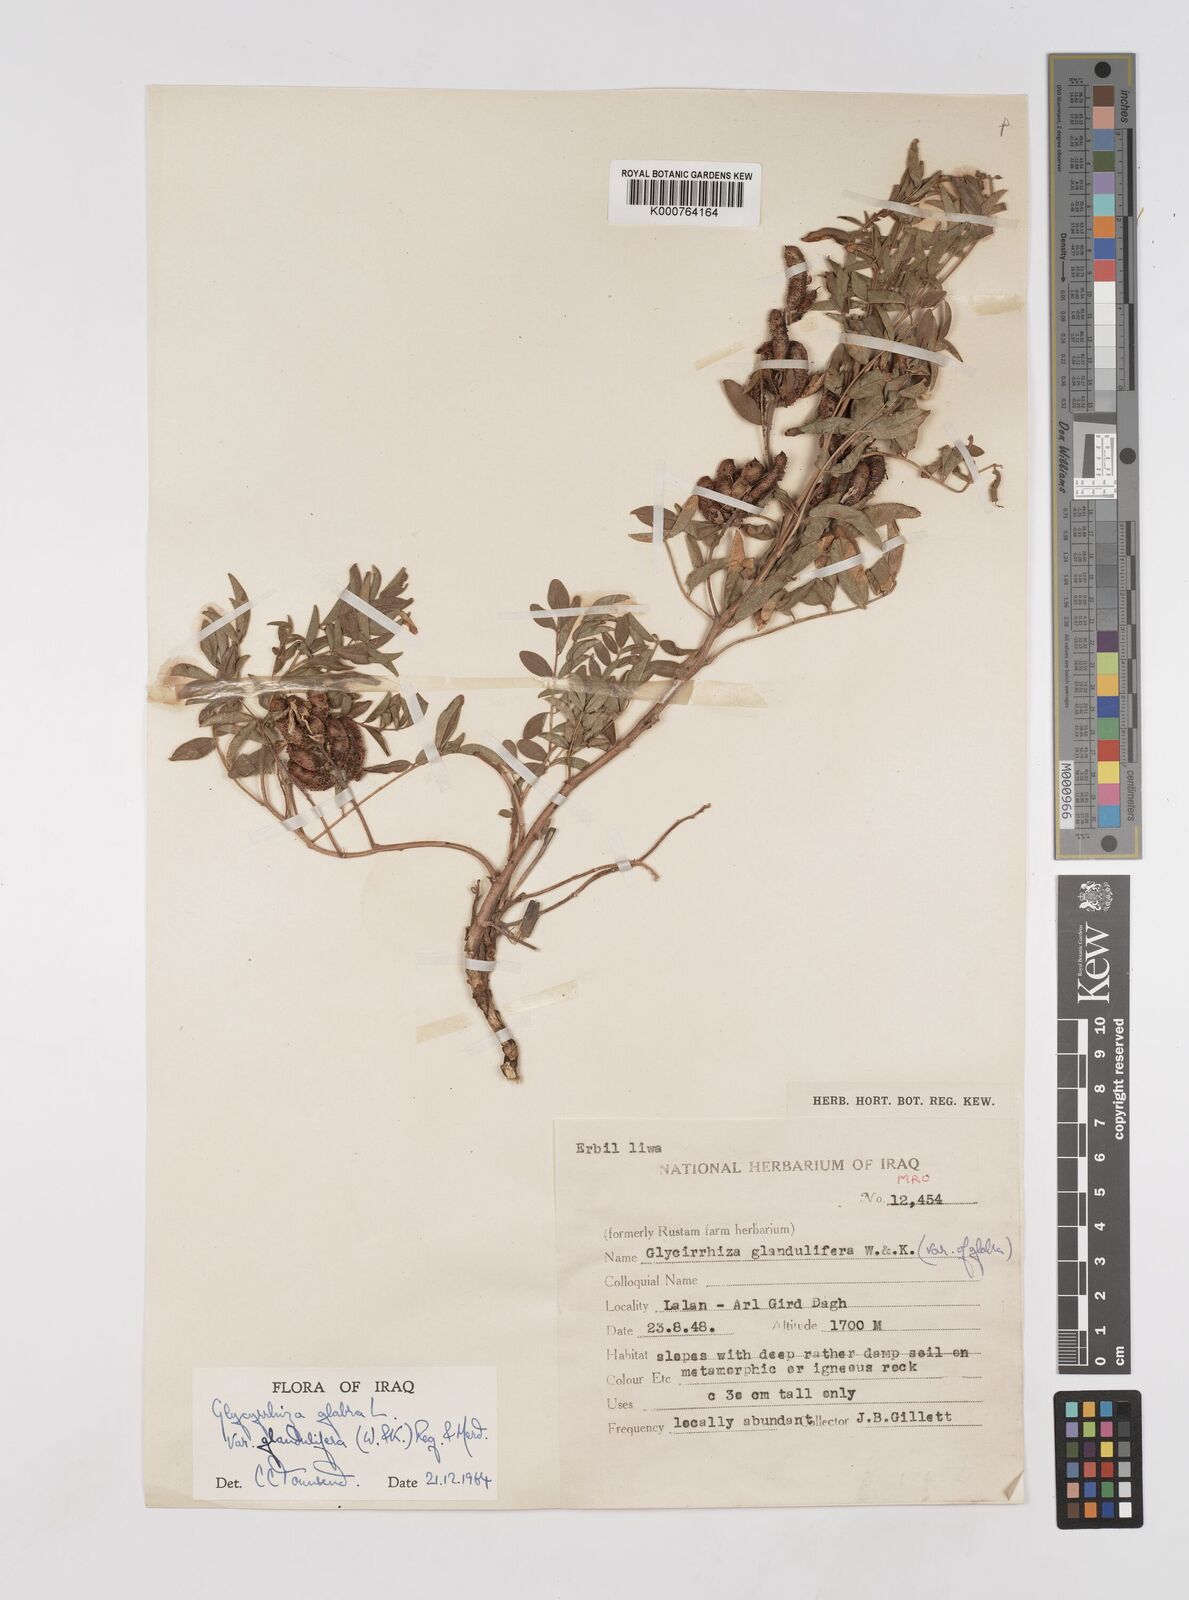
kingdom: Plantae
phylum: Tracheophyta
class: Magnoliopsida
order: Fabales
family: Fabaceae
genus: Glycyrrhiza
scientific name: Glycyrrhiza glabra
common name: Liquorice
